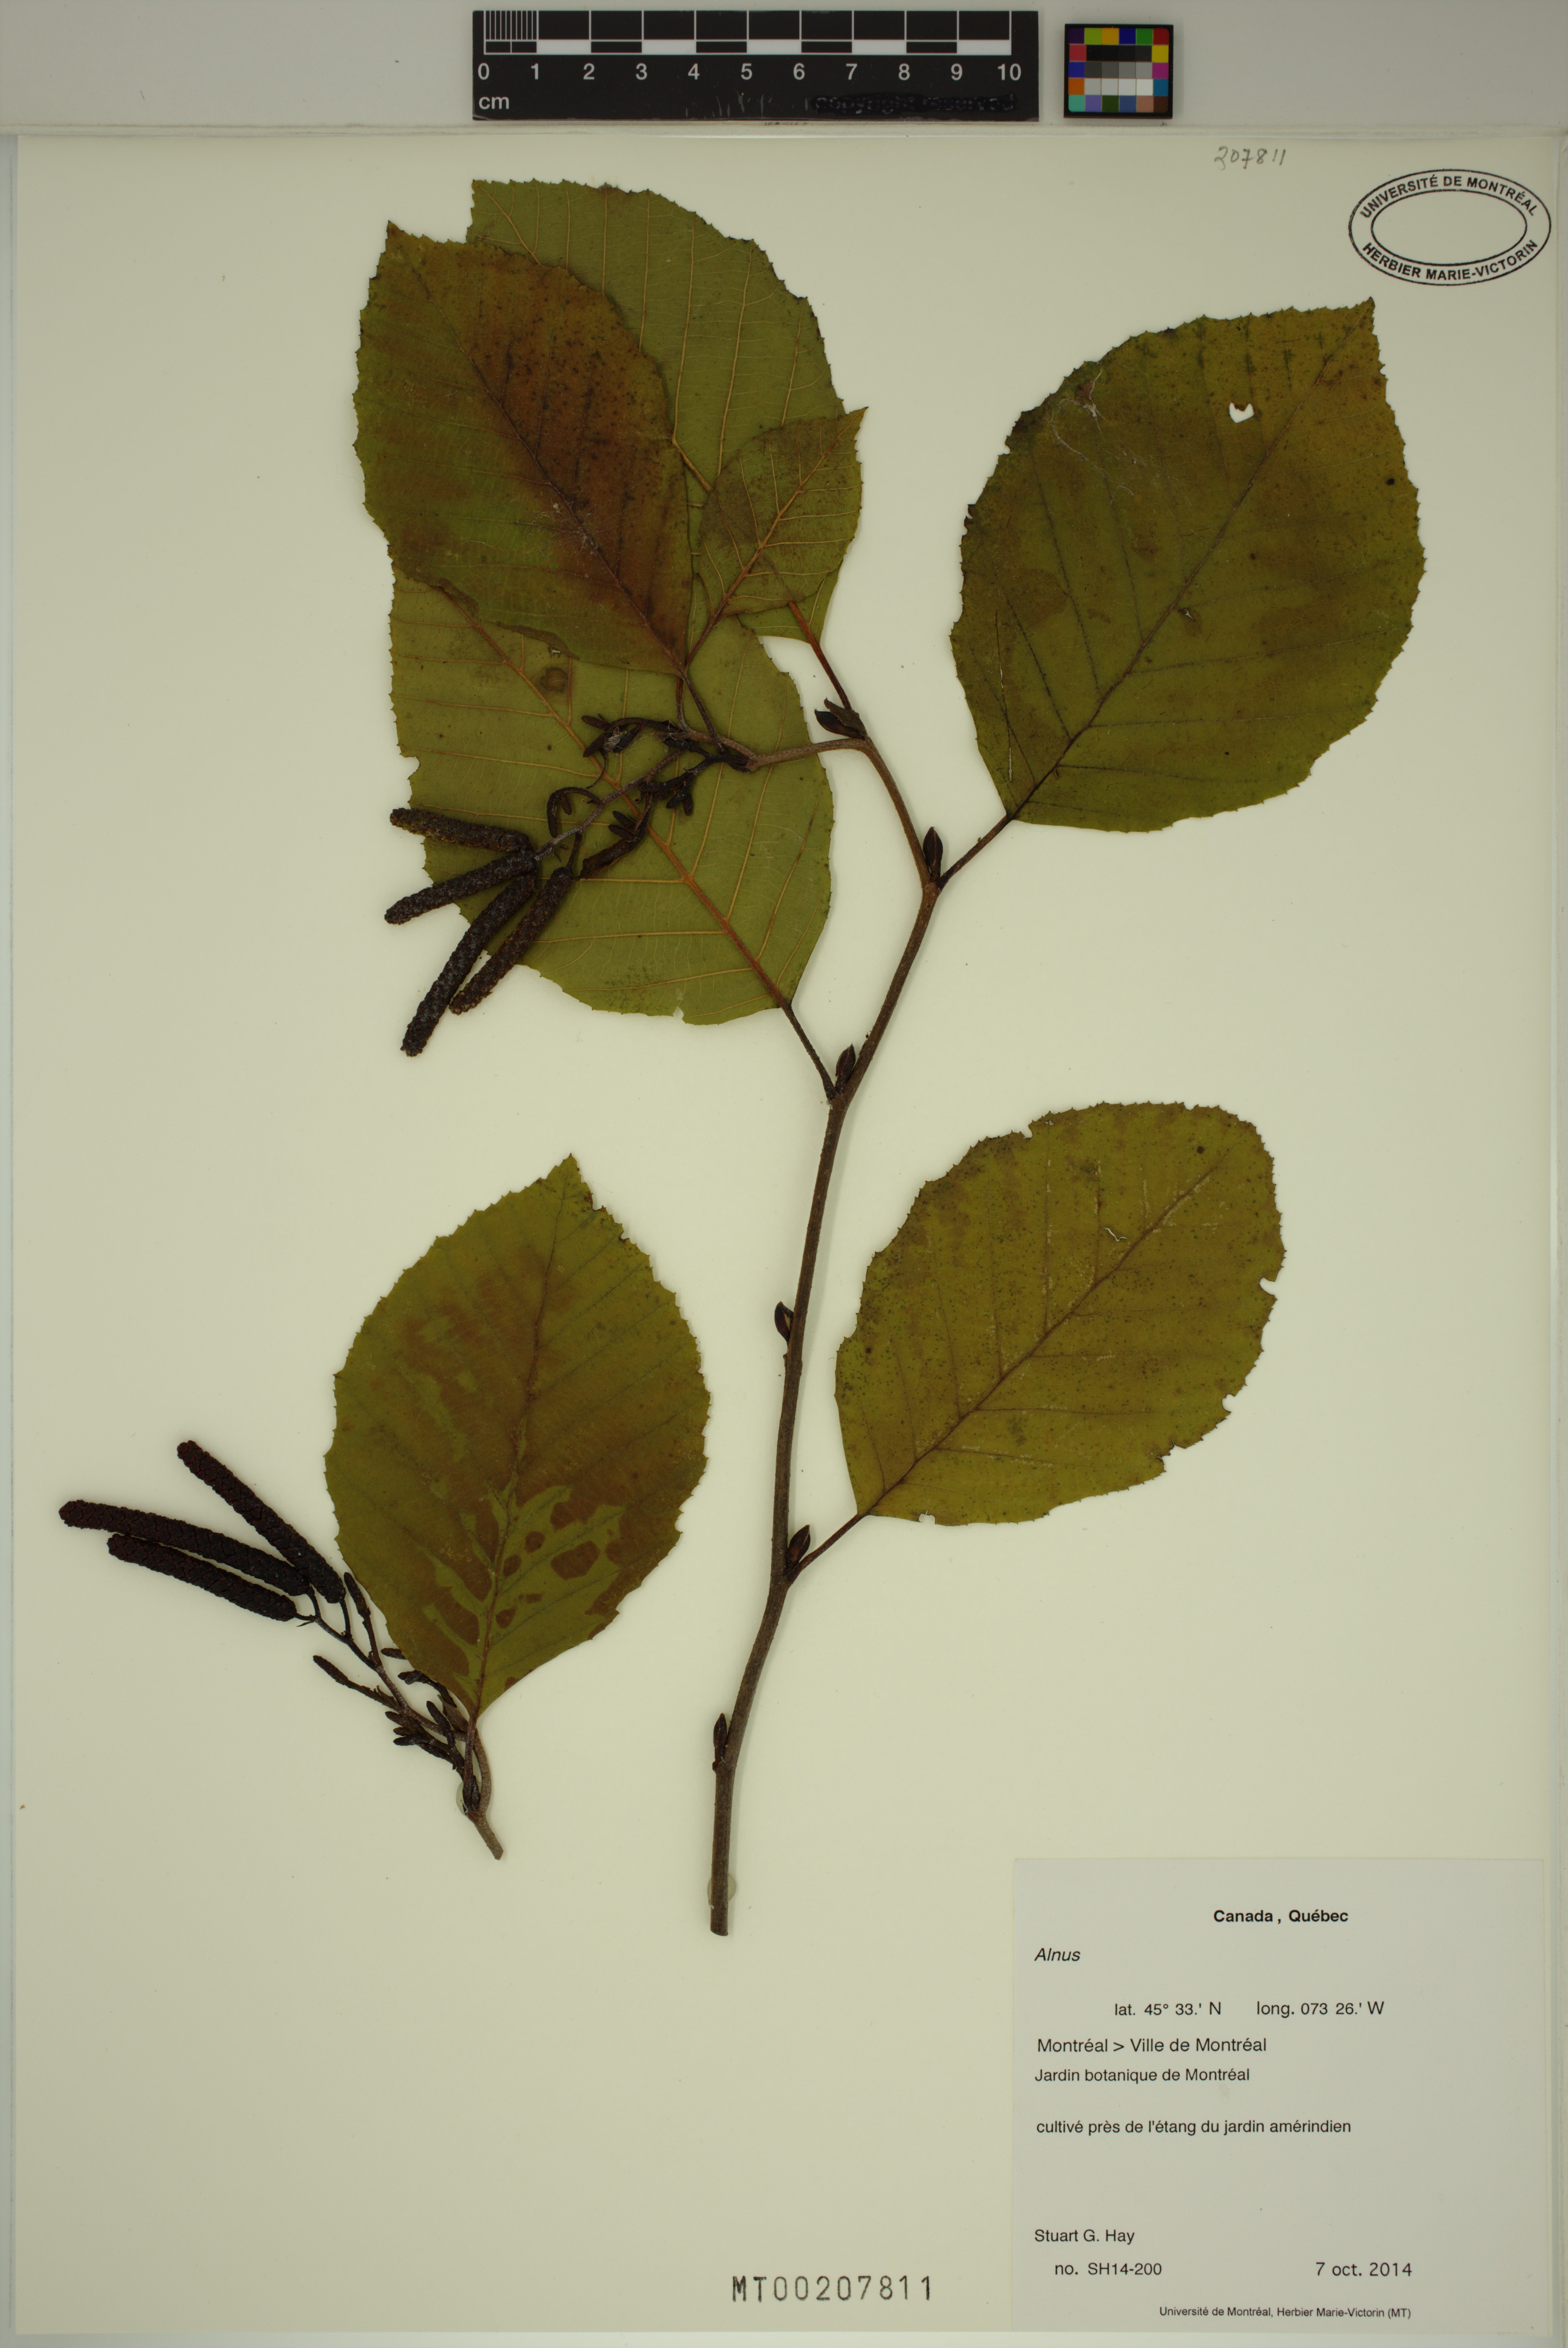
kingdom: Plantae
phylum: Tracheophyta
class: Magnoliopsida
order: Fagales
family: Betulaceae
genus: Alnus
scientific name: Alnus
